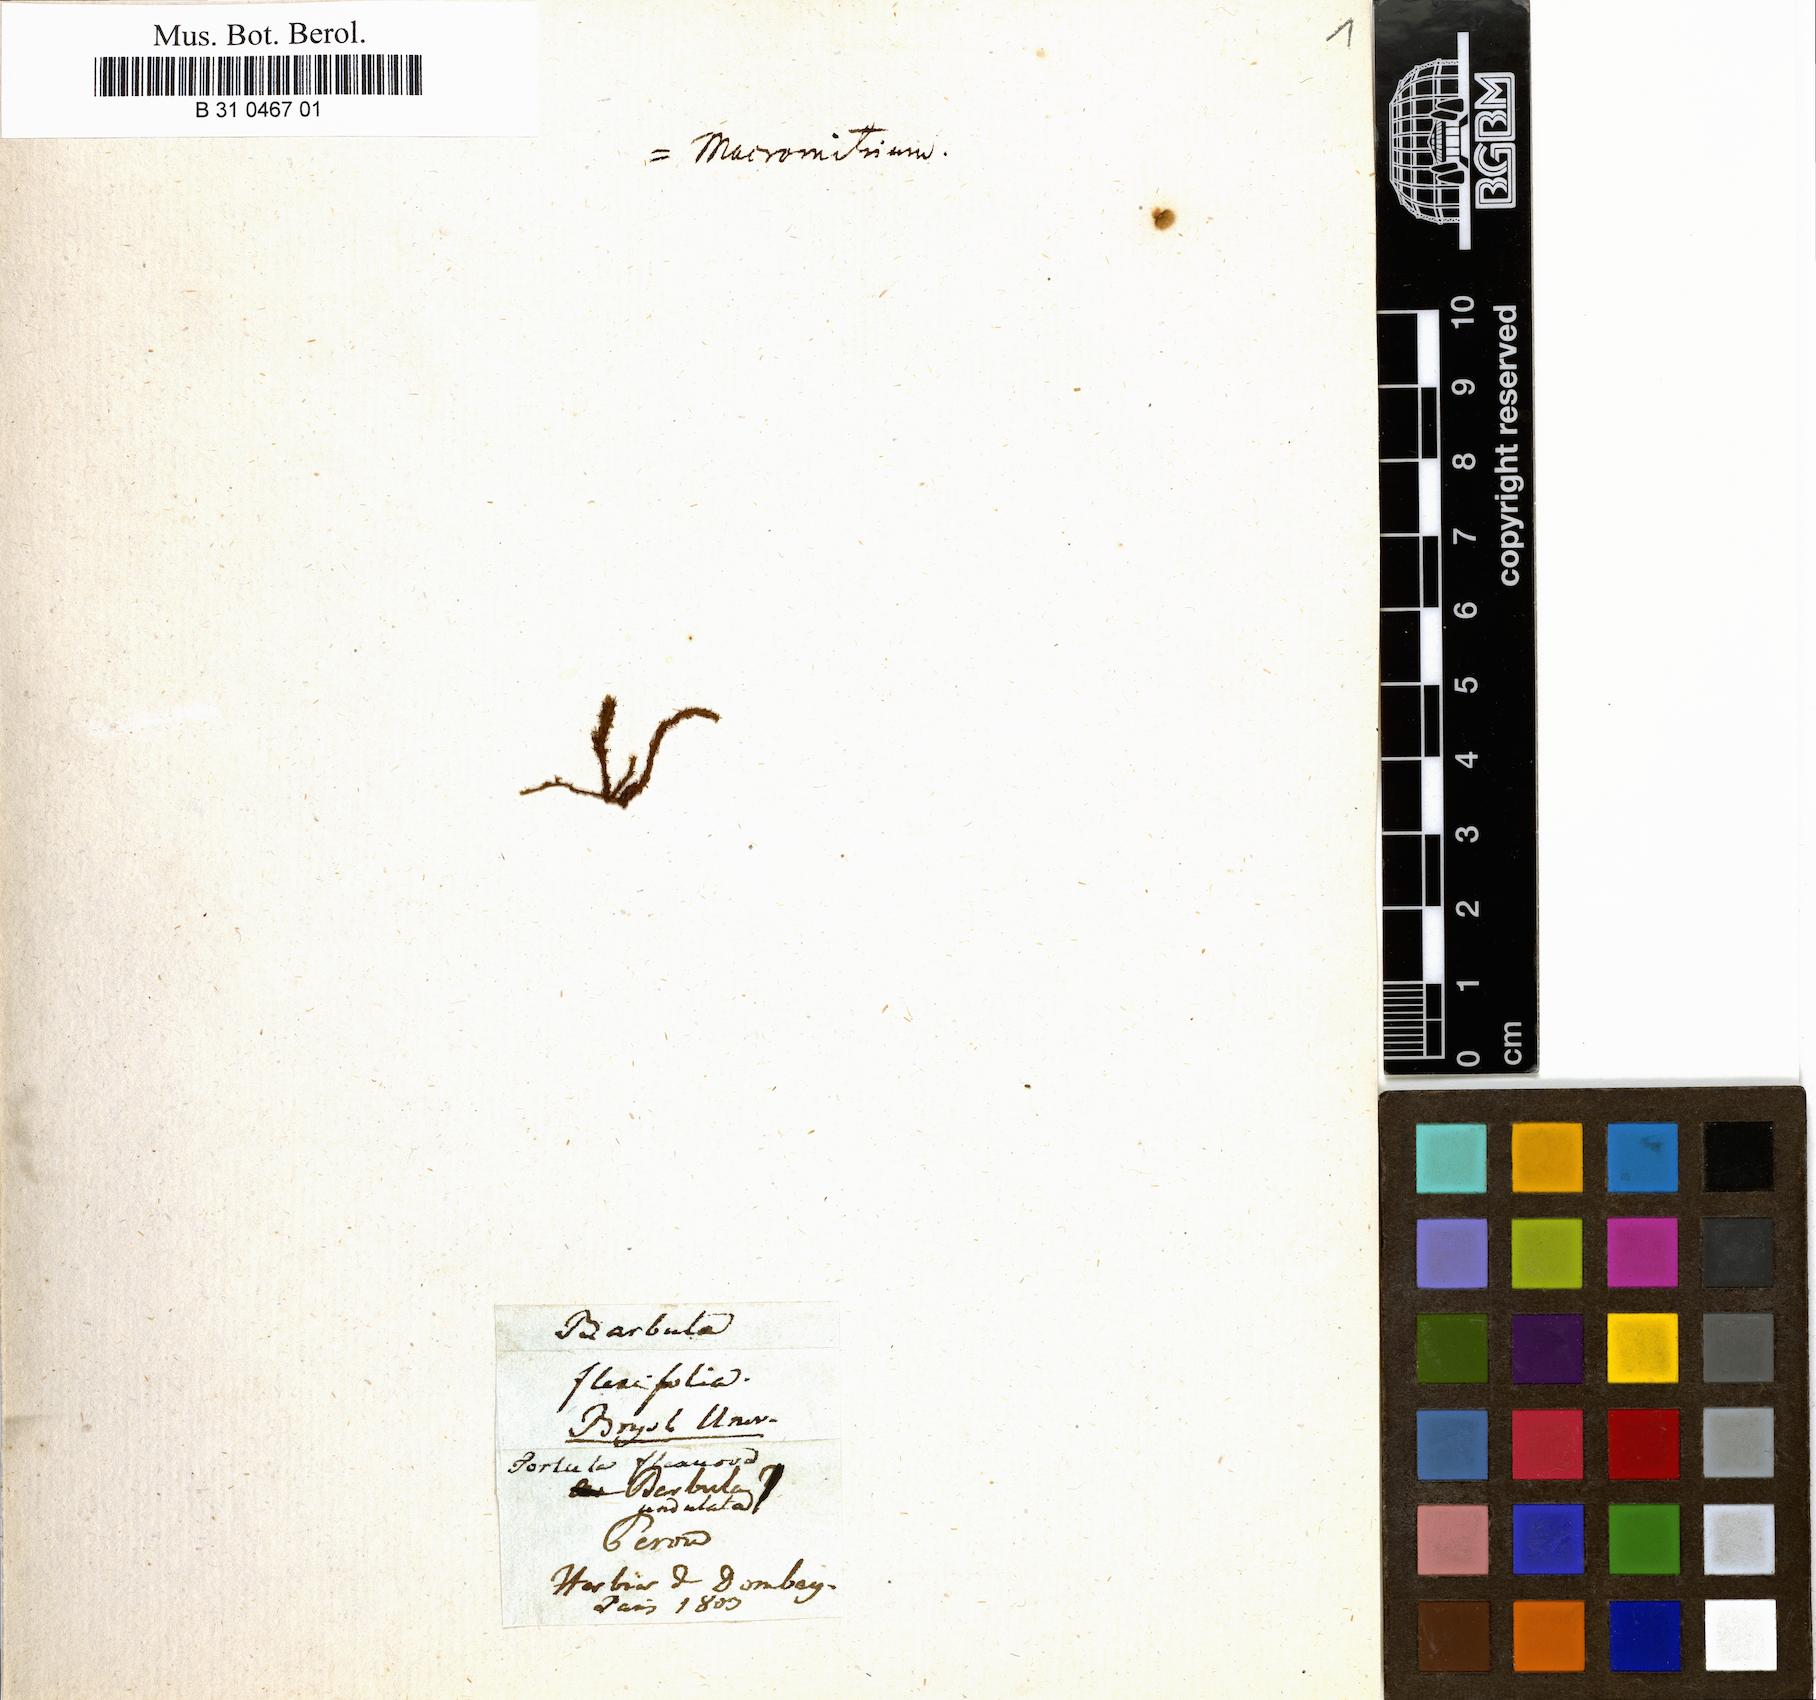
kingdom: Plantae
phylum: Bryophyta
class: Bryopsida
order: Pottiales
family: Pottiaceae
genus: Tortula
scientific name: Tortula flexuosa
